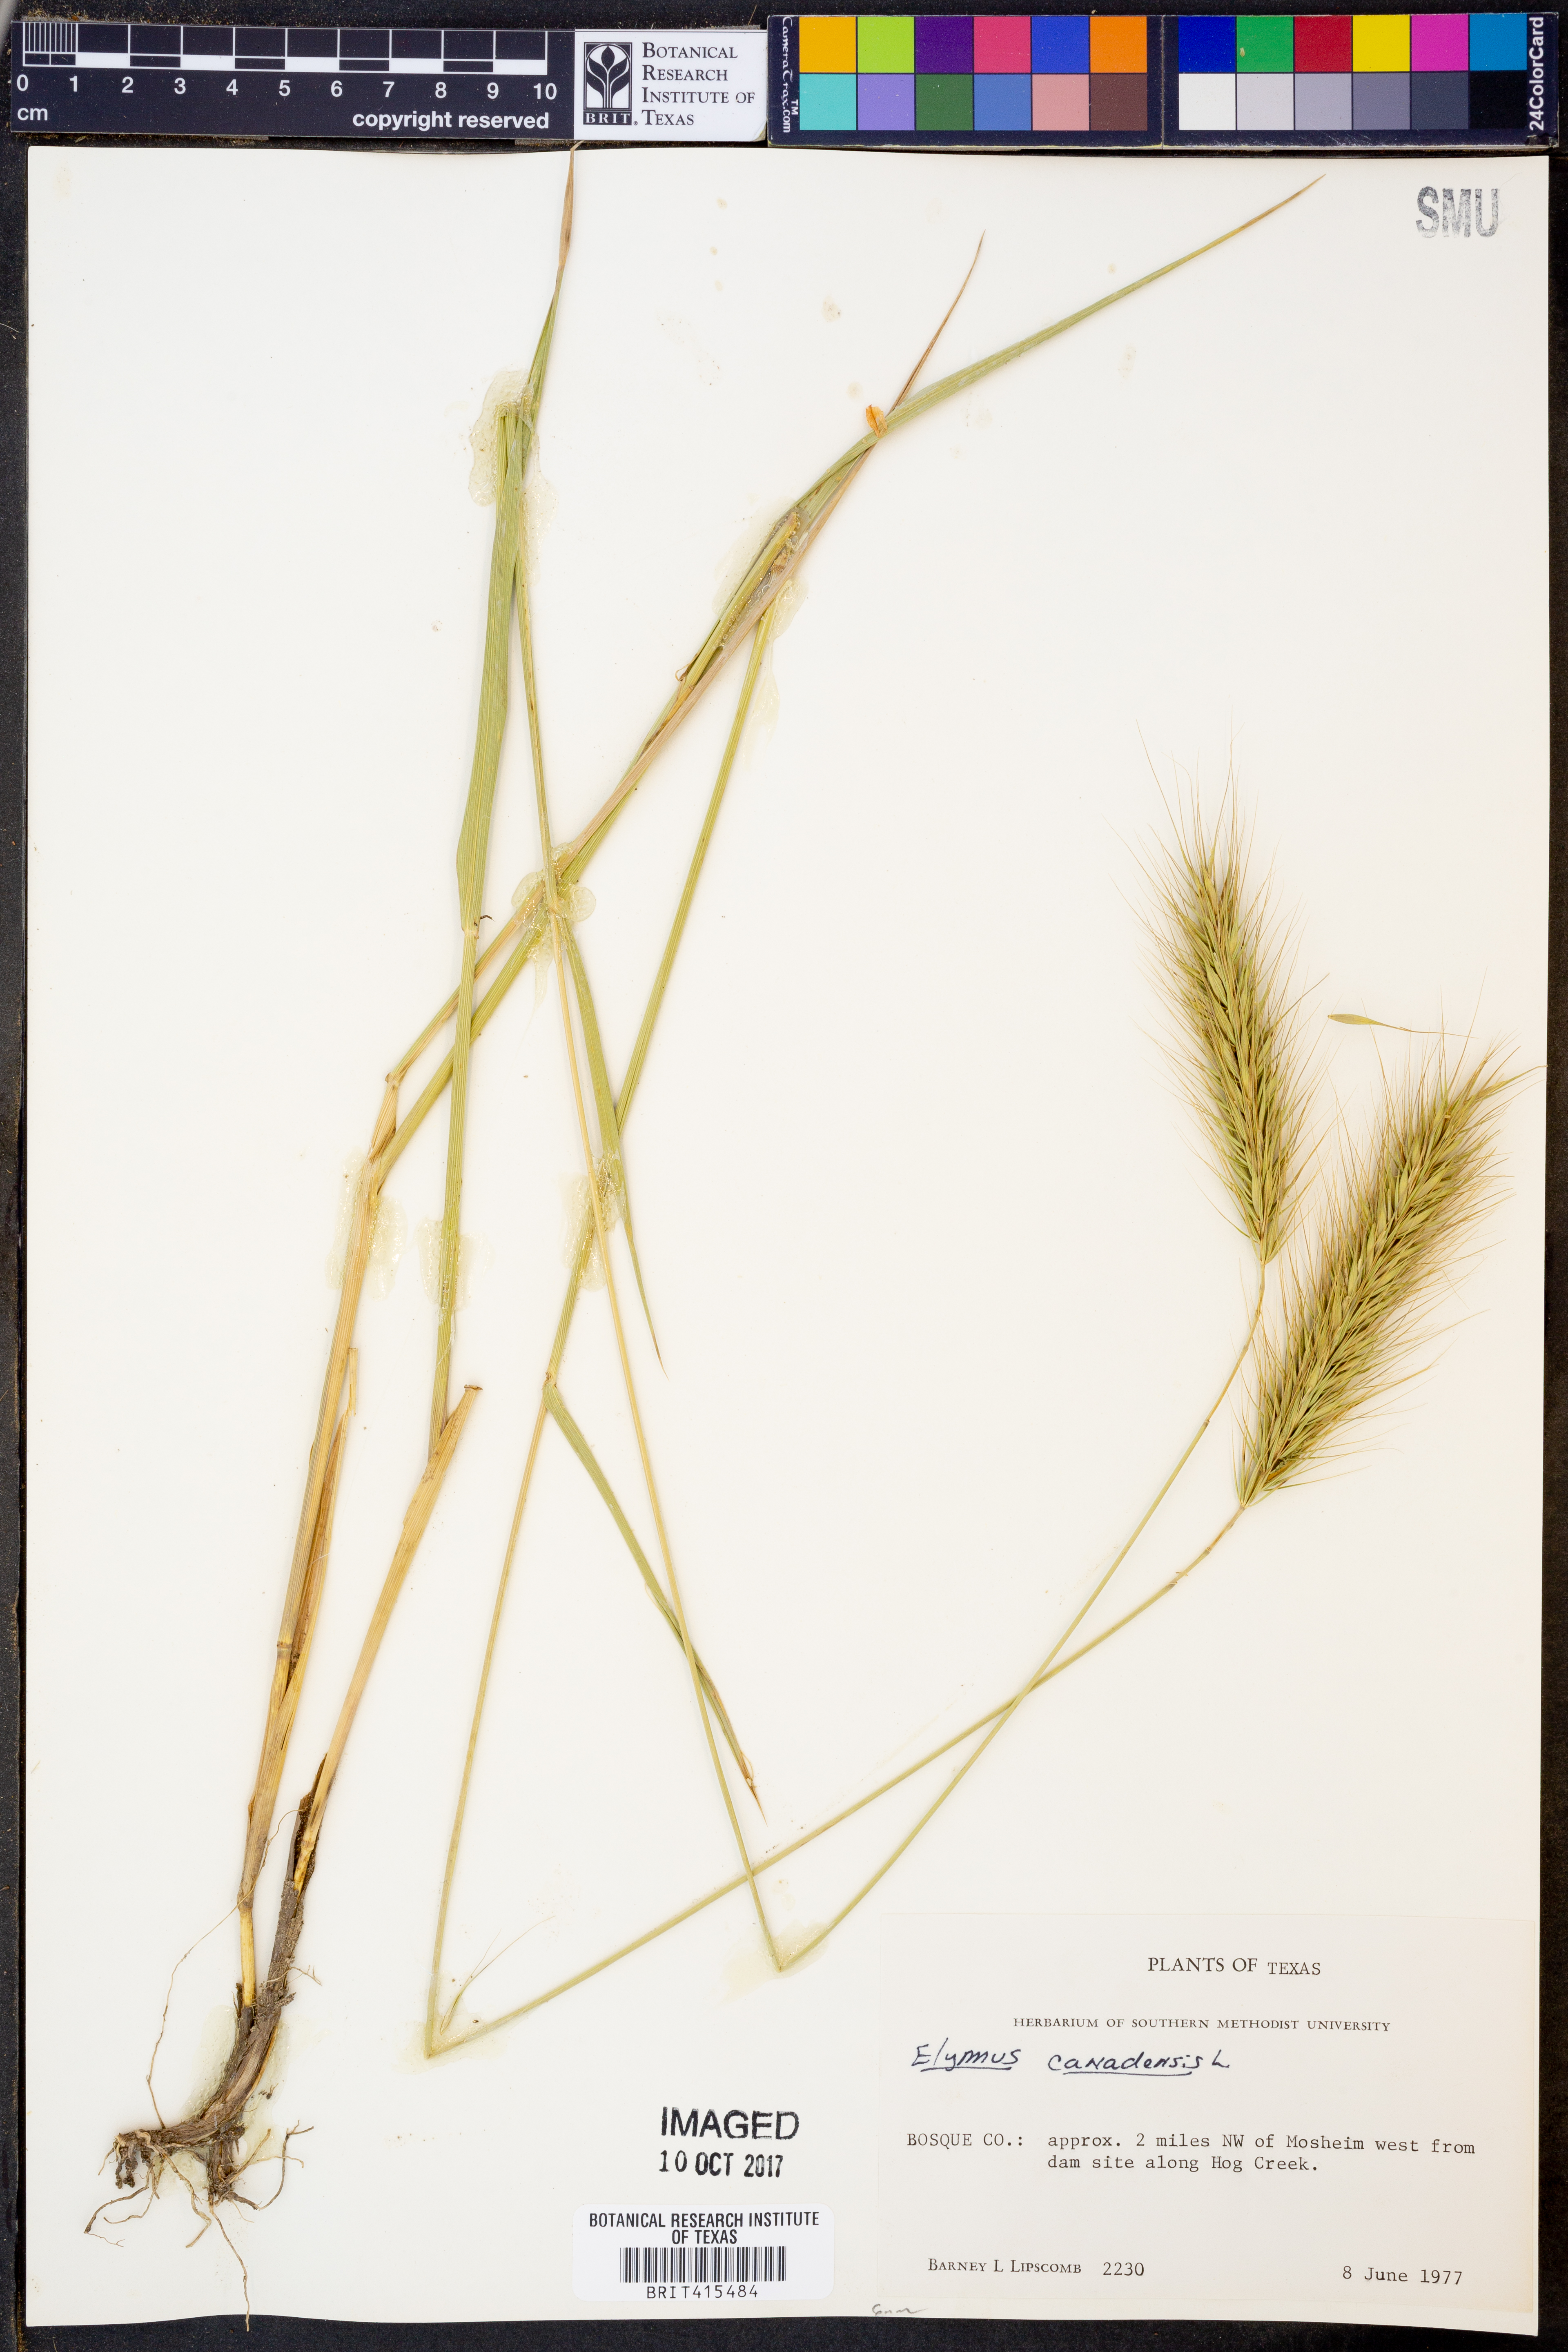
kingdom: Plantae
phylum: Tracheophyta
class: Liliopsida
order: Poales
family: Poaceae
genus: Elymus
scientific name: Elymus canadensis
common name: Canada wild rye
